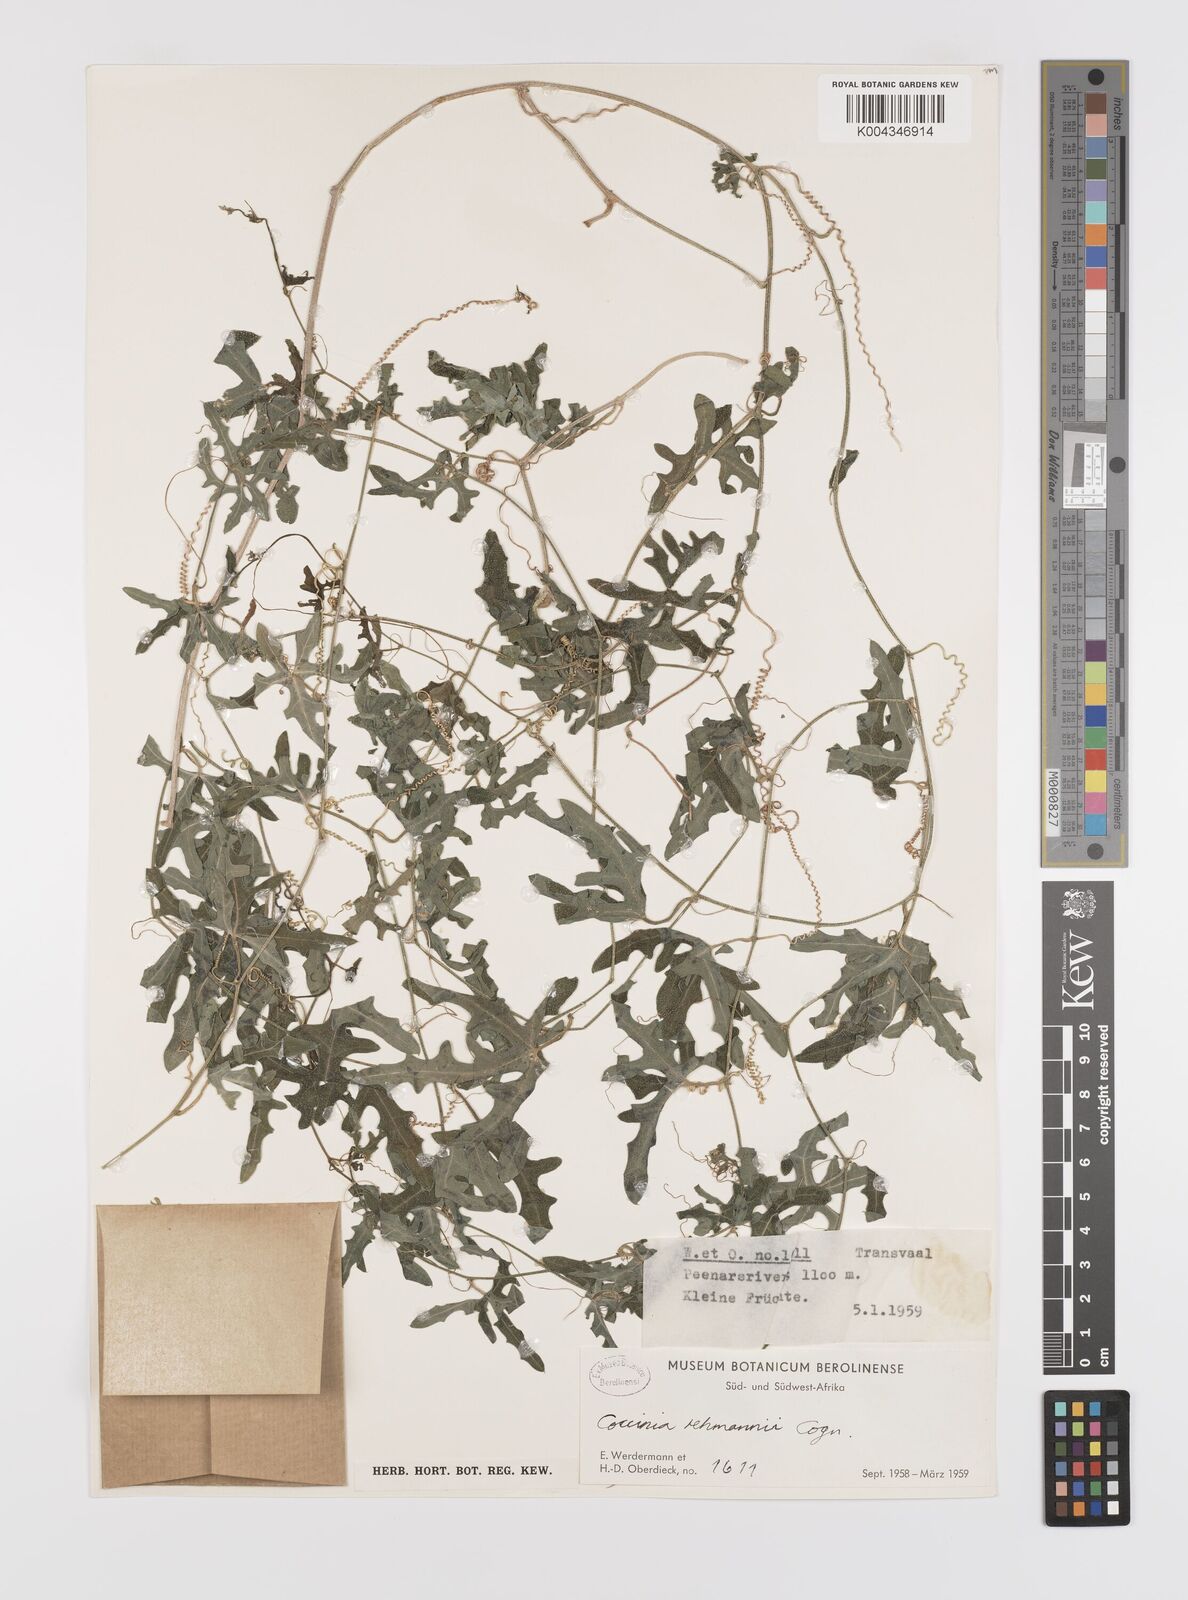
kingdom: Plantae
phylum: Tracheophyta
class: Magnoliopsida
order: Cucurbitales
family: Cucurbitaceae
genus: Coccinia
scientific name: Coccinia rehmannii
